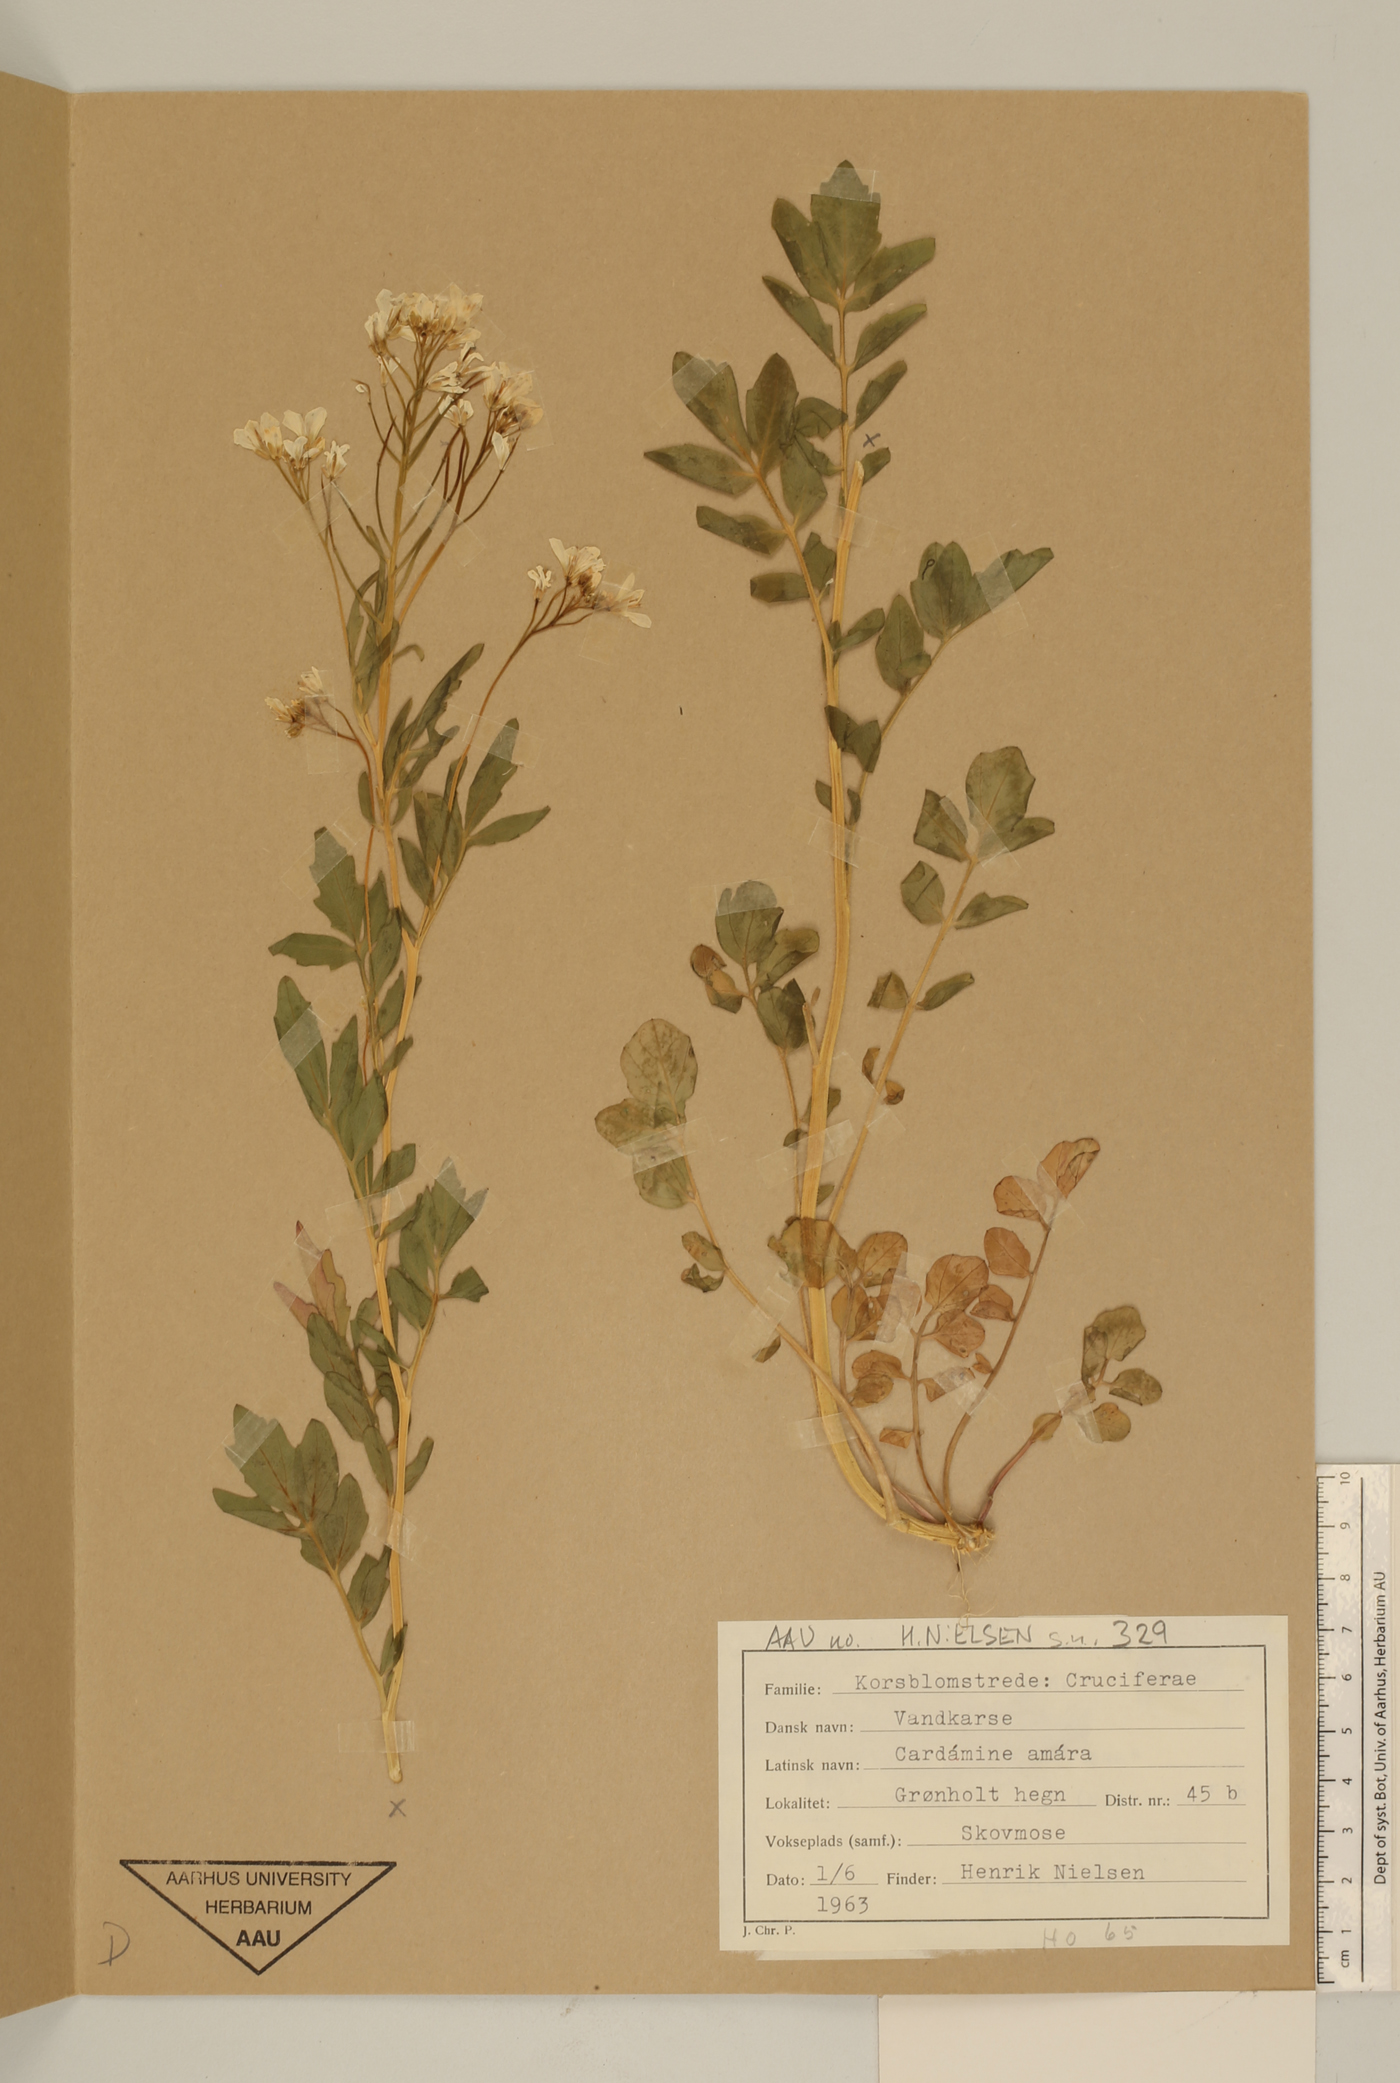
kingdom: Plantae
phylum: Tracheophyta
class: Magnoliopsida
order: Brassicales
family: Brassicaceae
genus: Cardamine
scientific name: Cardamine amara
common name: Large bitter-cress
